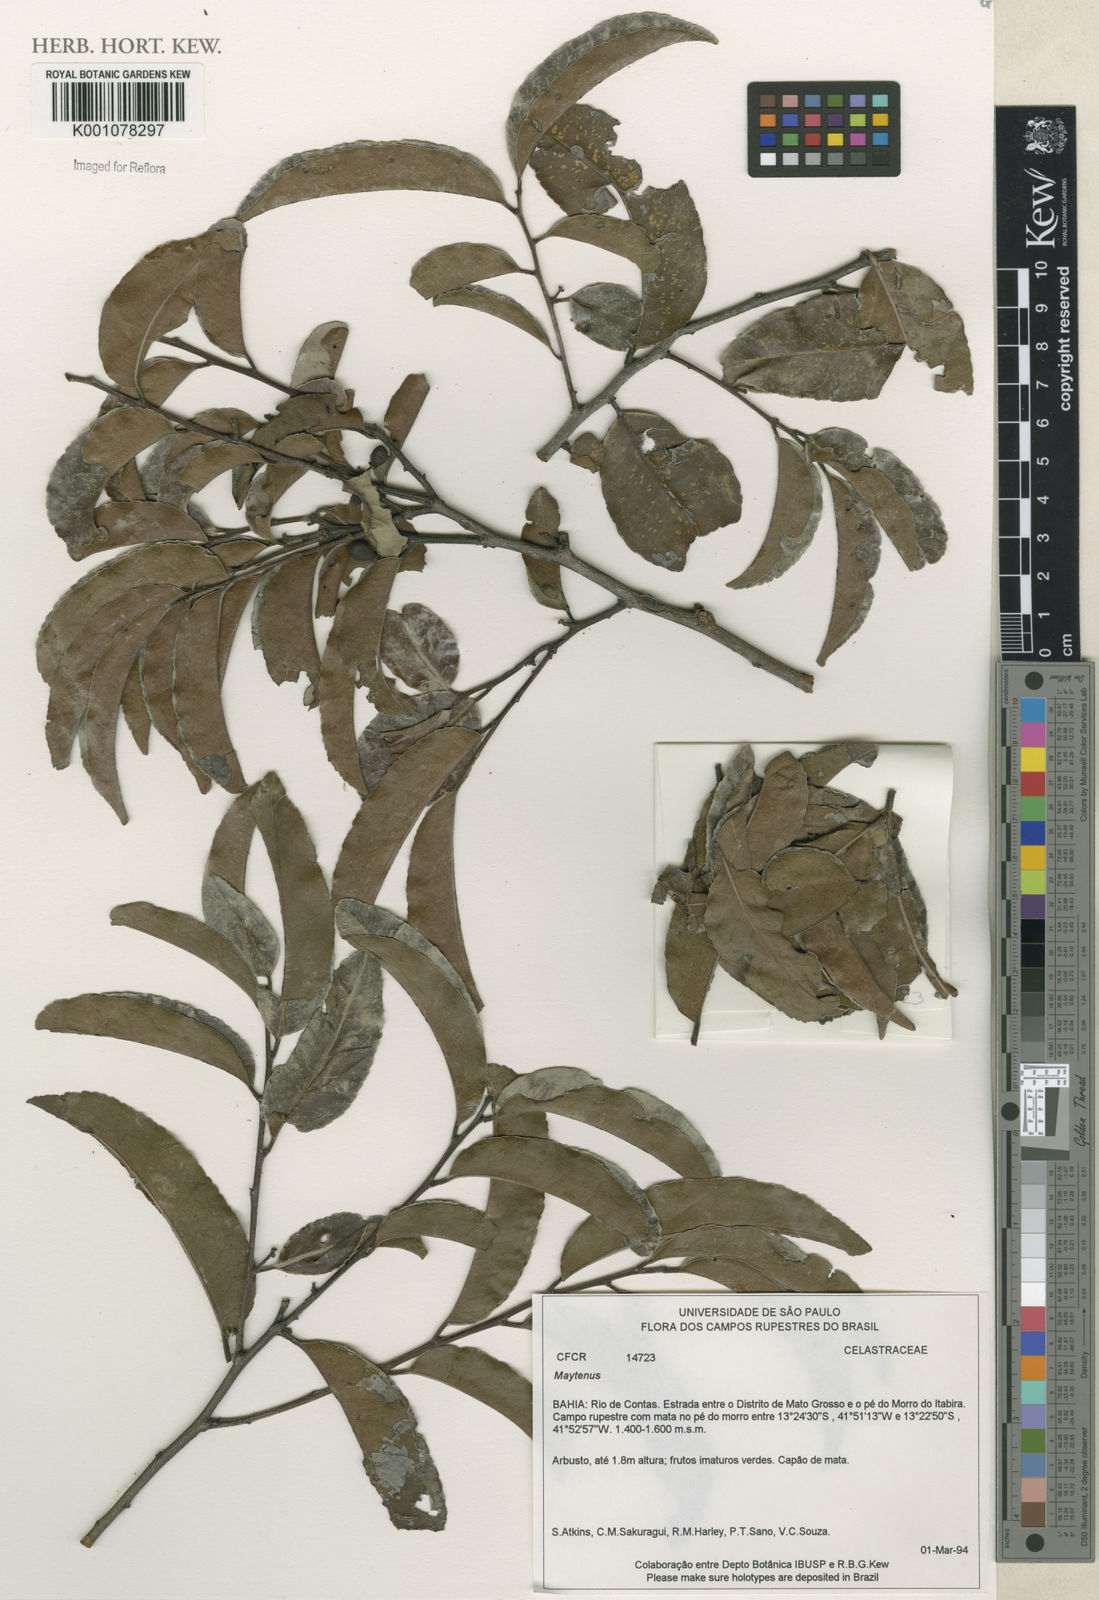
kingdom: Plantae
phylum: Tracheophyta
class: Magnoliopsida
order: Celastrales
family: Celastraceae
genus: Maytenus
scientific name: Maytenus
